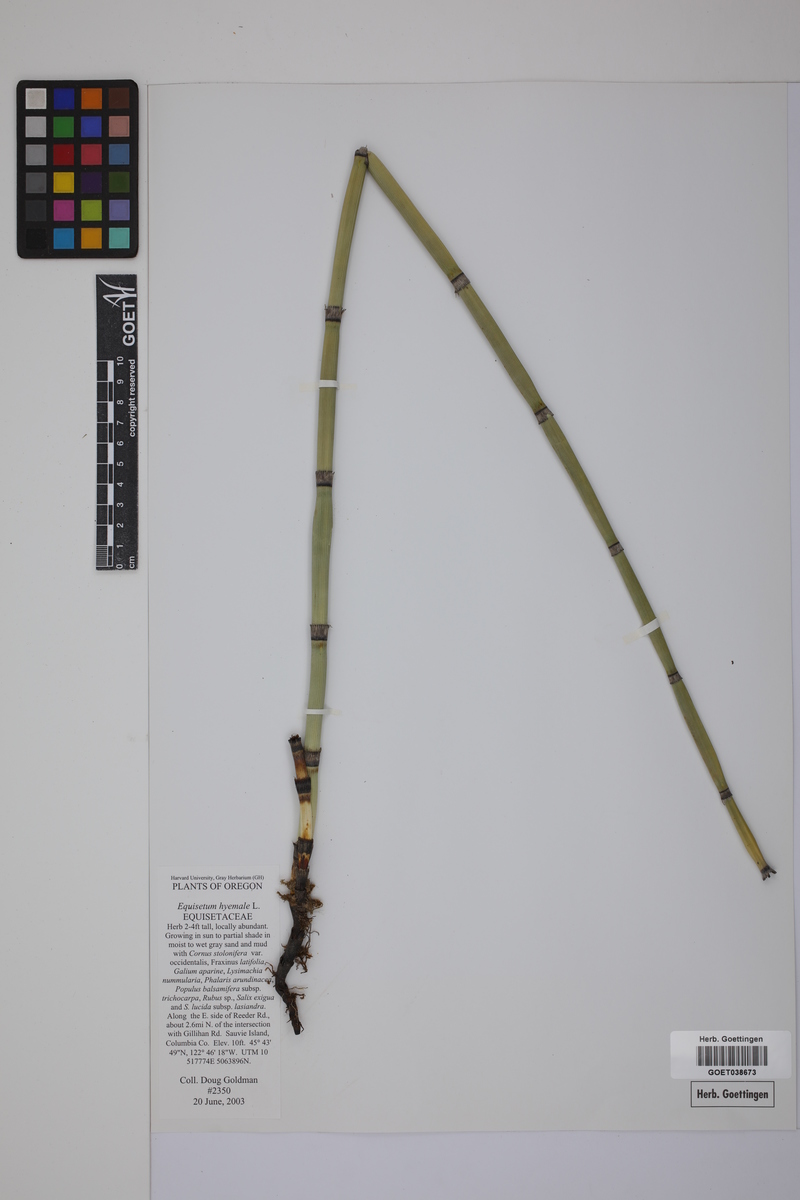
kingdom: Plantae
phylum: Tracheophyta
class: Polypodiopsida
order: Equisetales
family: Equisetaceae
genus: Equisetum
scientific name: Equisetum hyemale
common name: Rough horsetail
